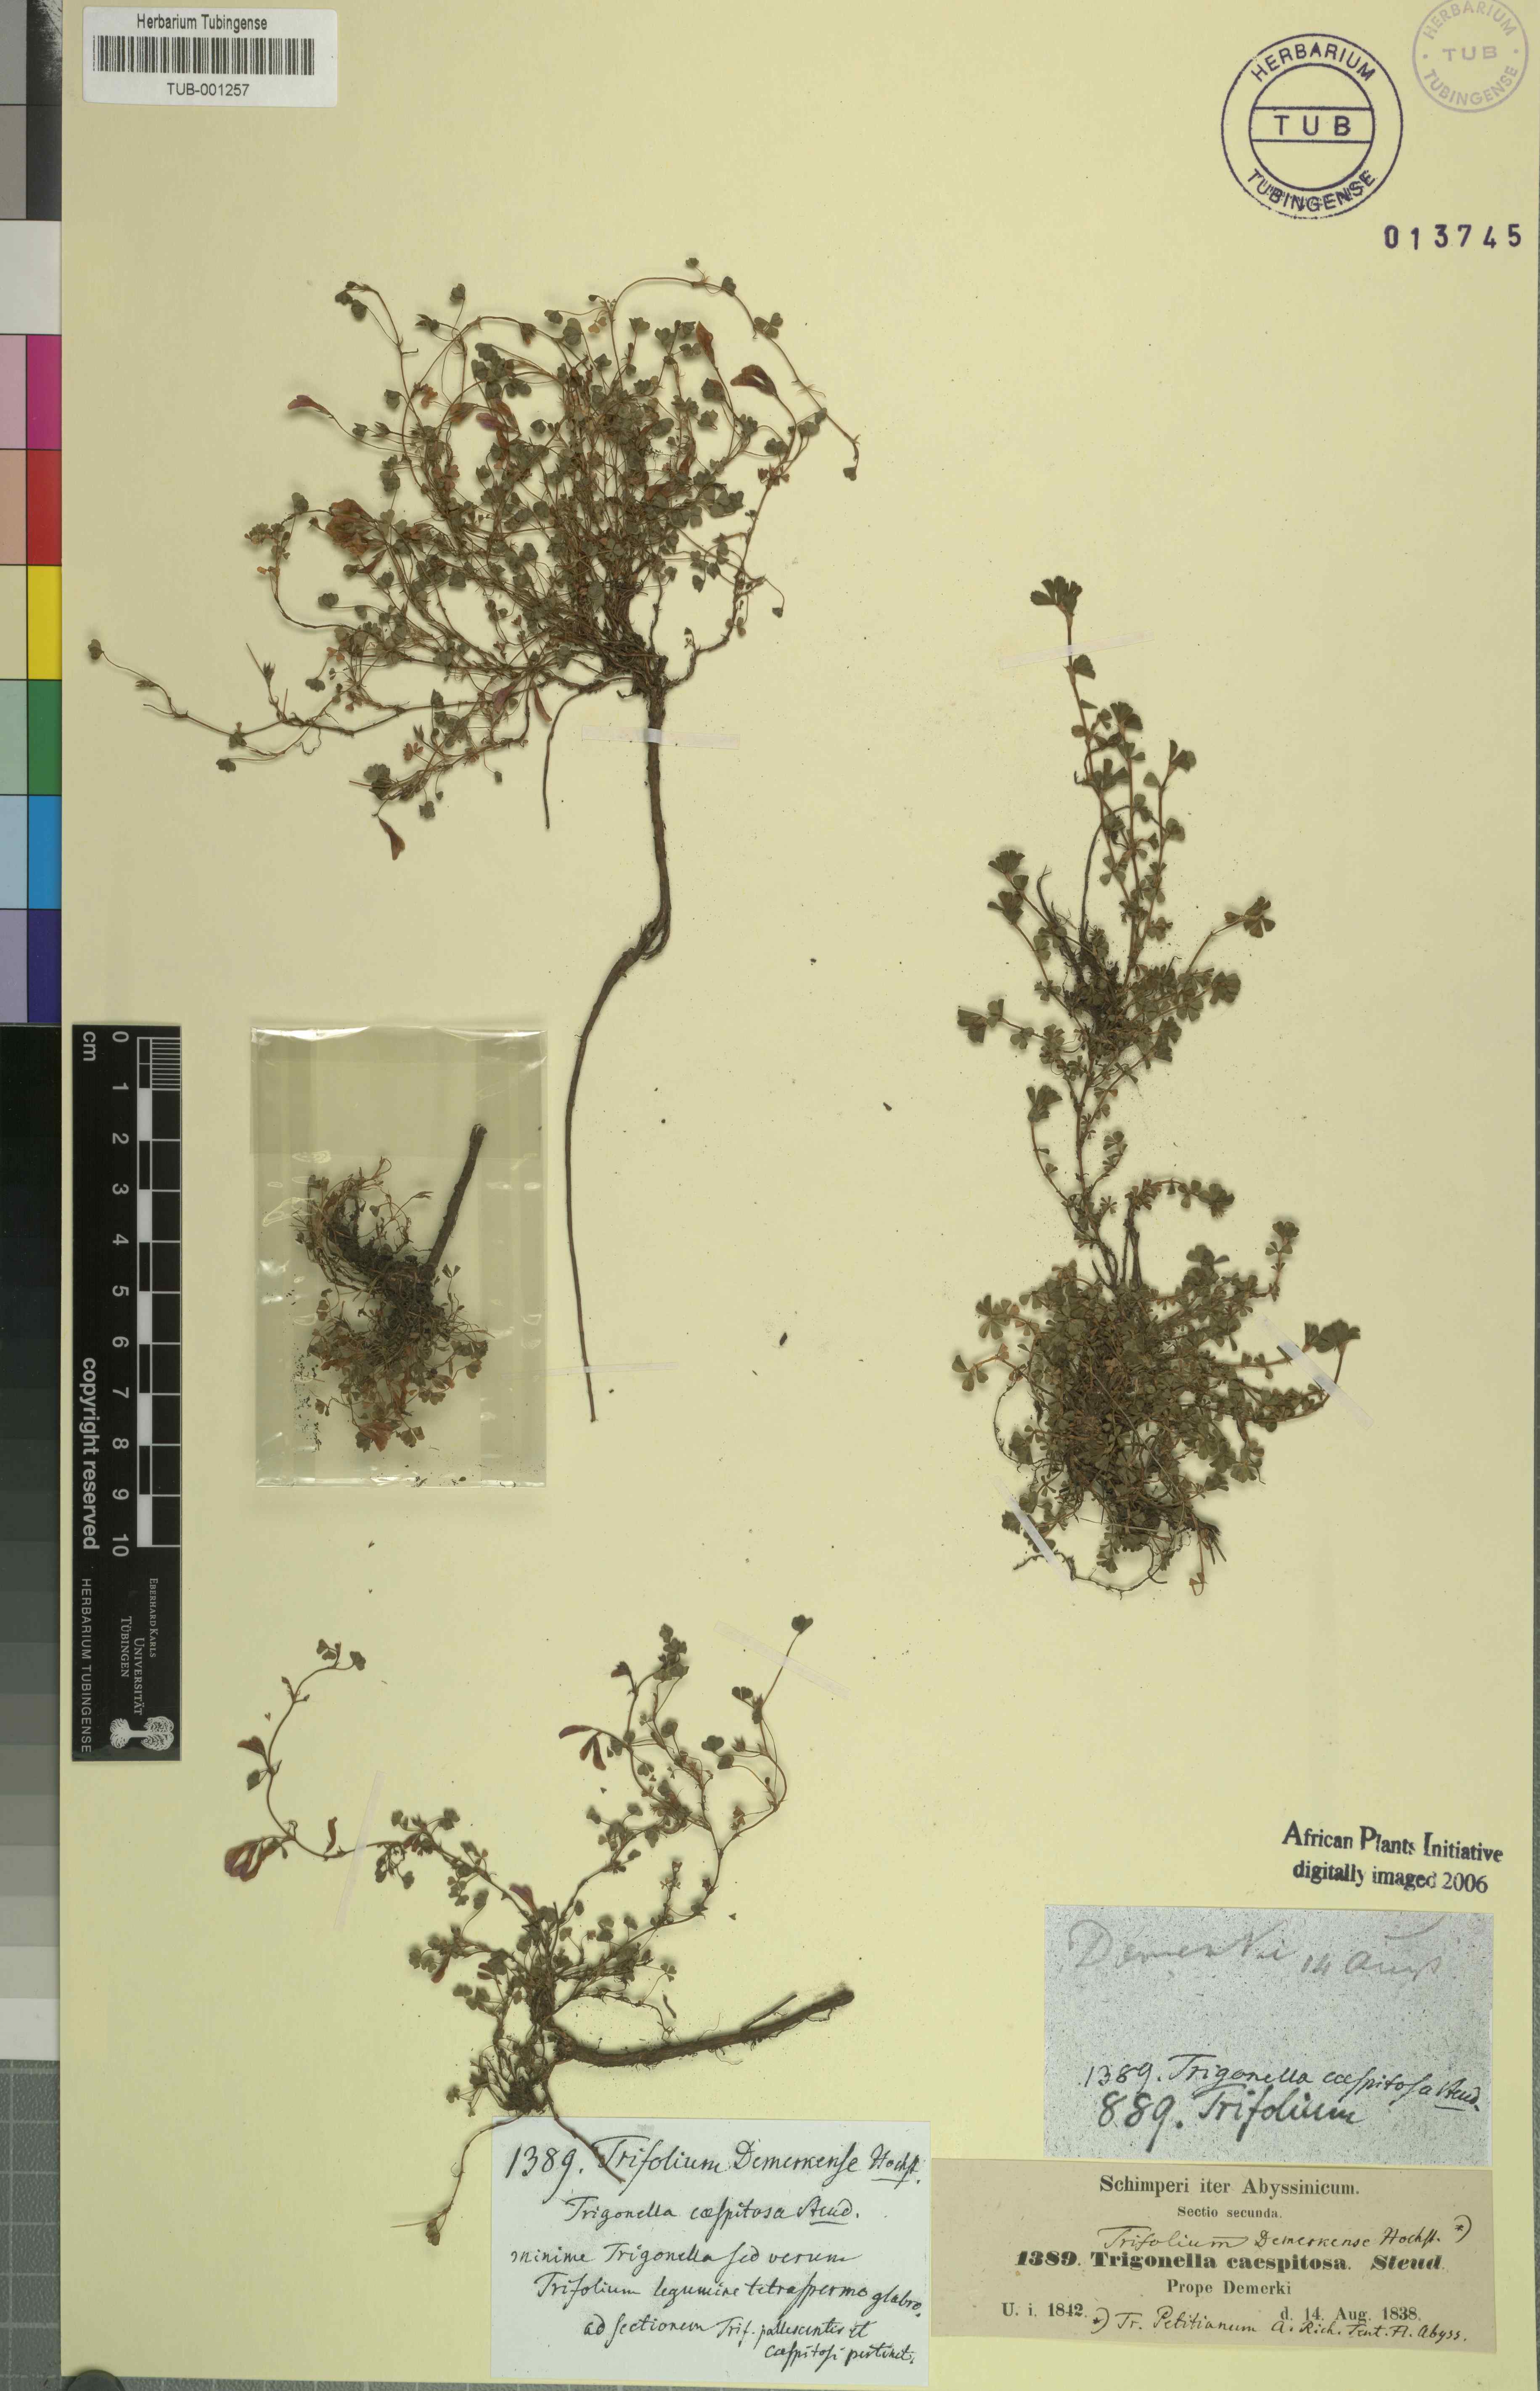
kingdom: Plantae
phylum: Tracheophyta
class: Magnoliopsida
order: Fabales
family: Fabaceae
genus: Trifolium
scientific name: Trifolium acaule
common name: Stemless clover
